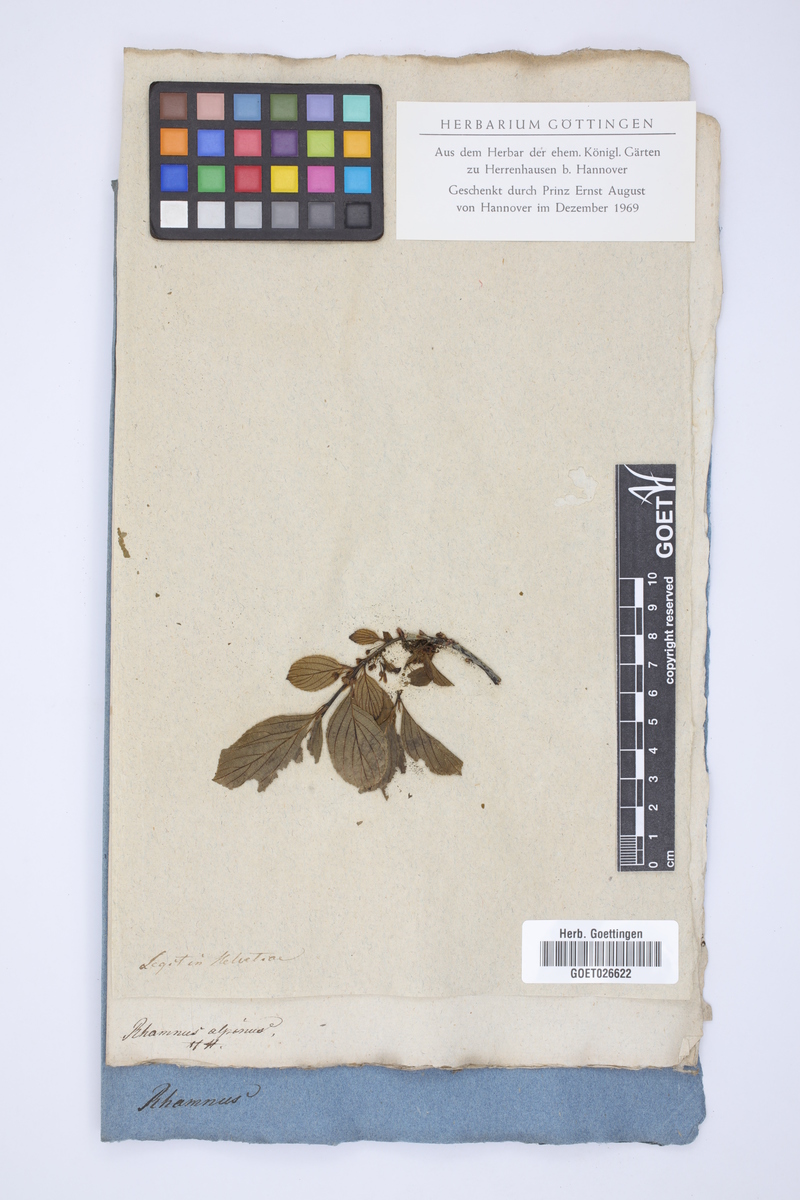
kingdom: Plantae
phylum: Tracheophyta
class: Magnoliopsida
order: Rosales
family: Rhamnaceae
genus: Atadinus
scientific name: Atadinus alpinus
